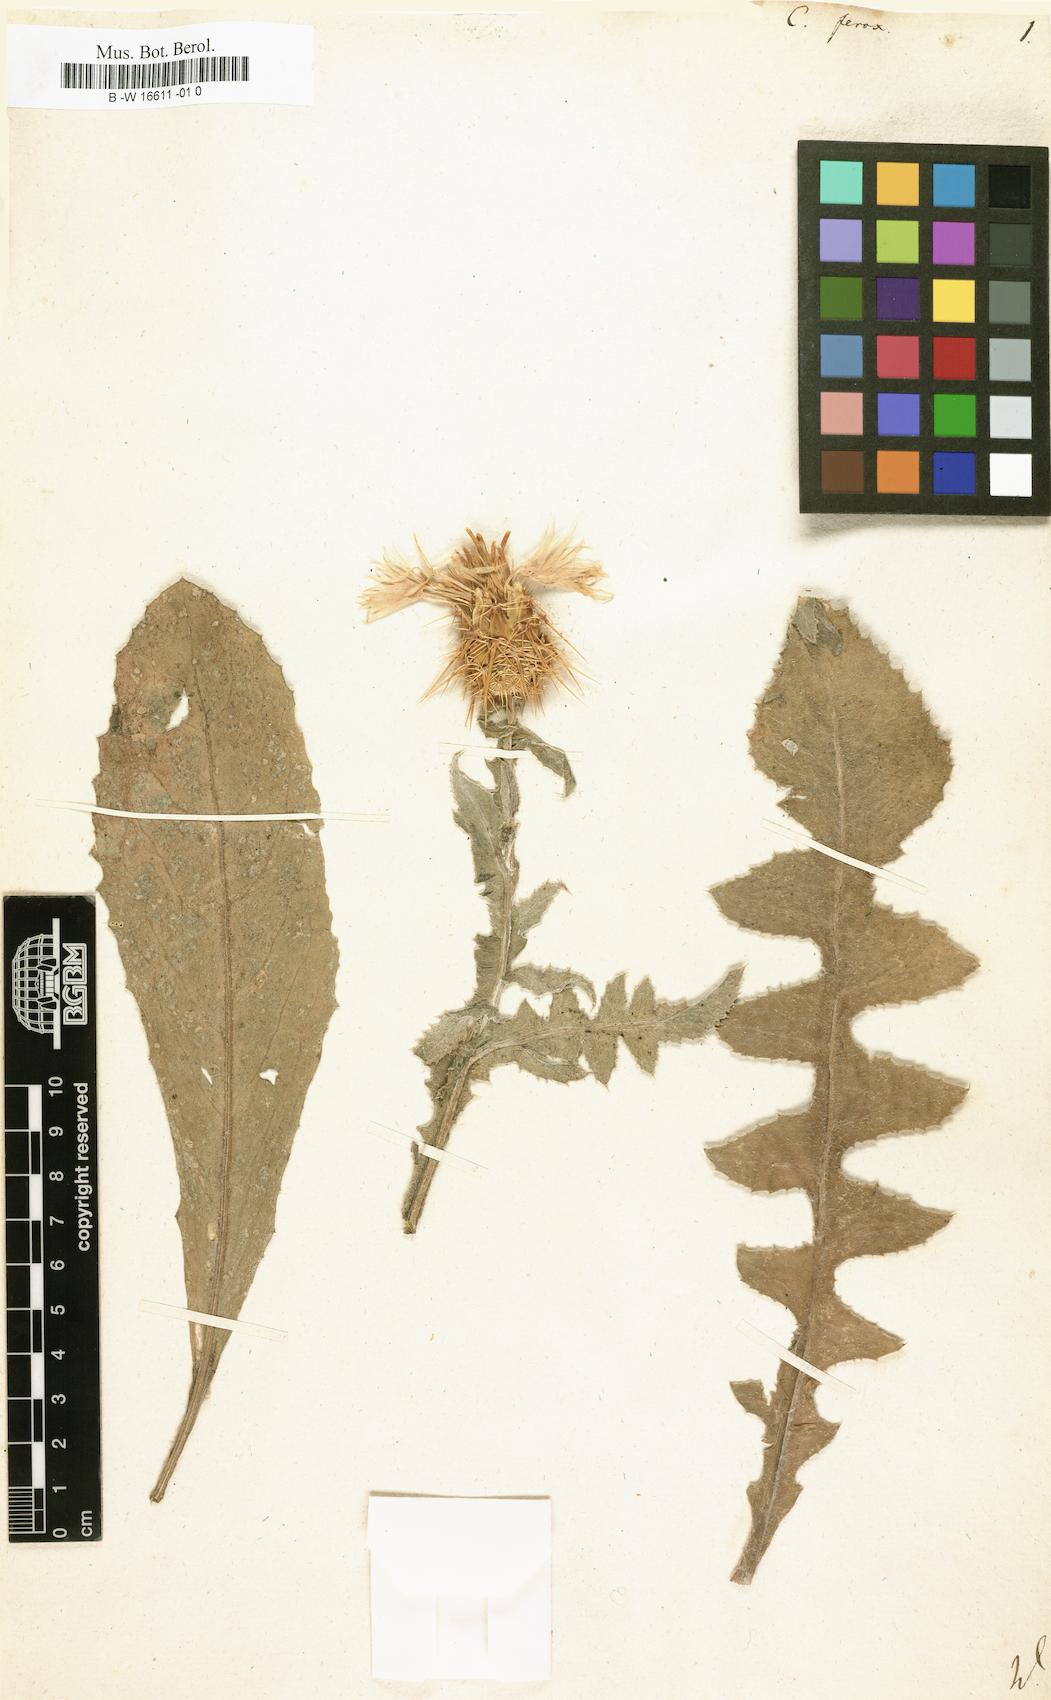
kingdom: Plantae
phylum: Tracheophyta
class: Magnoliopsida
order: Asterales
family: Asteraceae
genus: Centaurea
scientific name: Centaurea ferox
